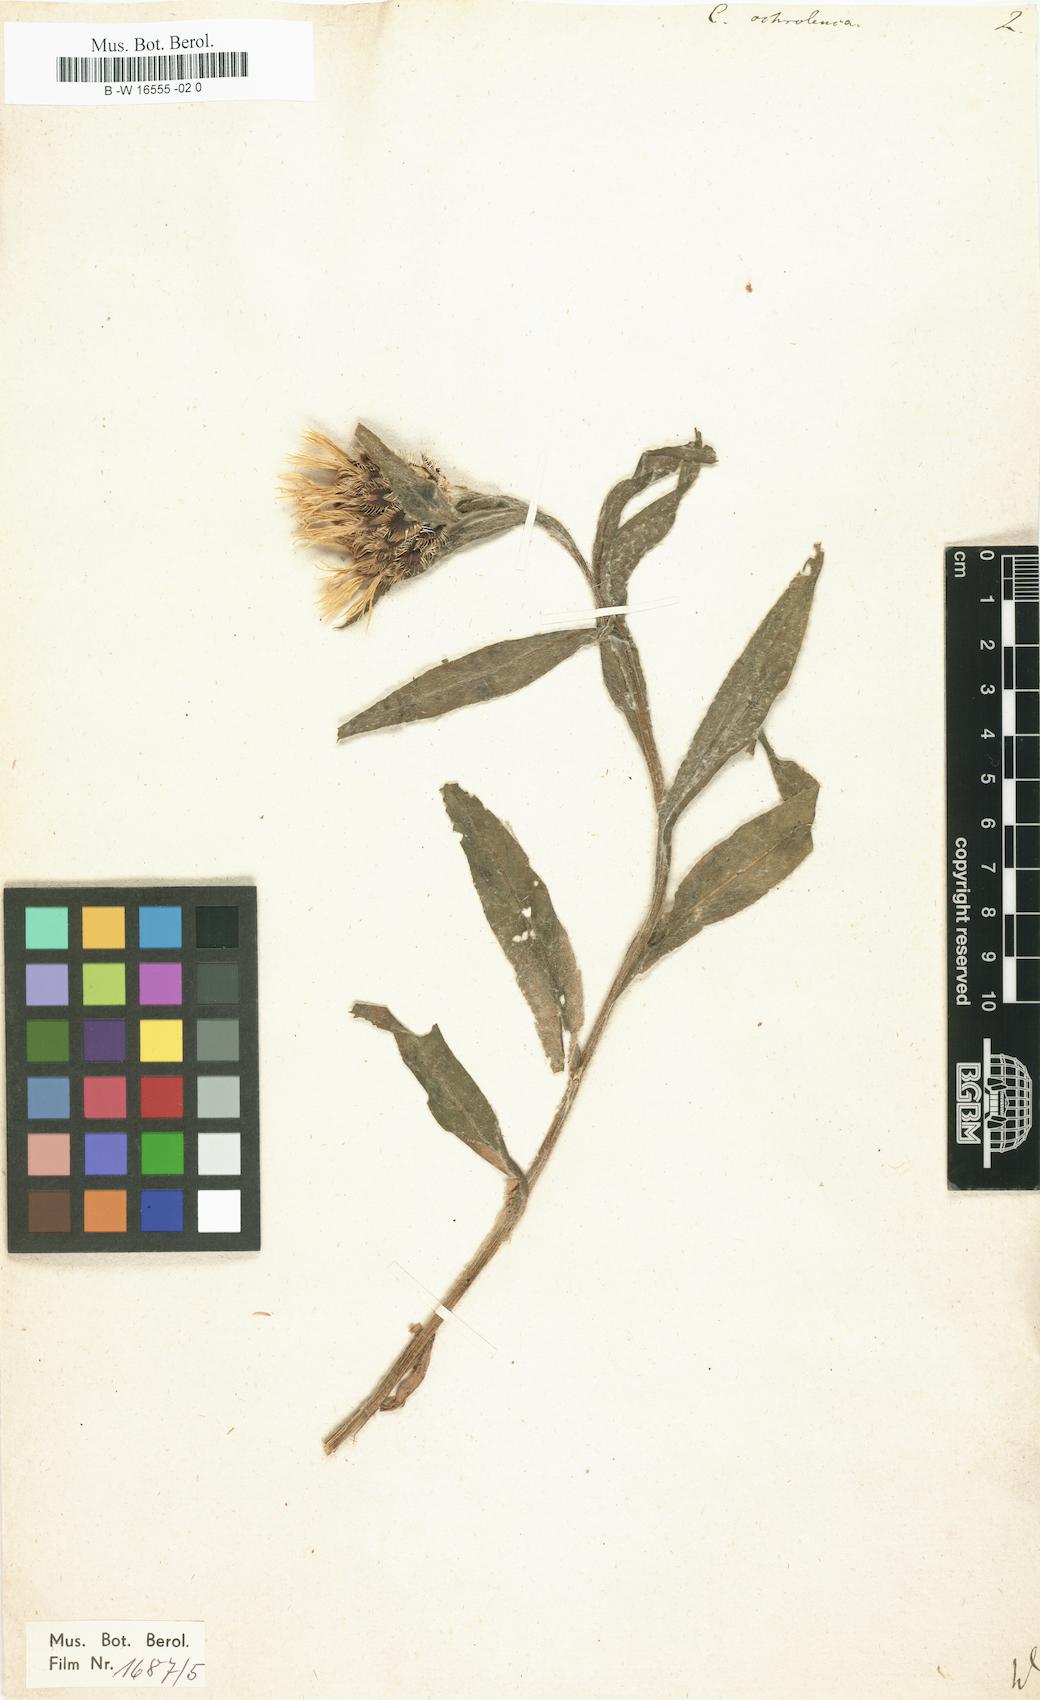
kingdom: Plantae
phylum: Tracheophyta
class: Magnoliopsida
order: Asterales
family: Asteraceae
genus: Centaurea
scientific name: Centaurea cheiranthifolia
